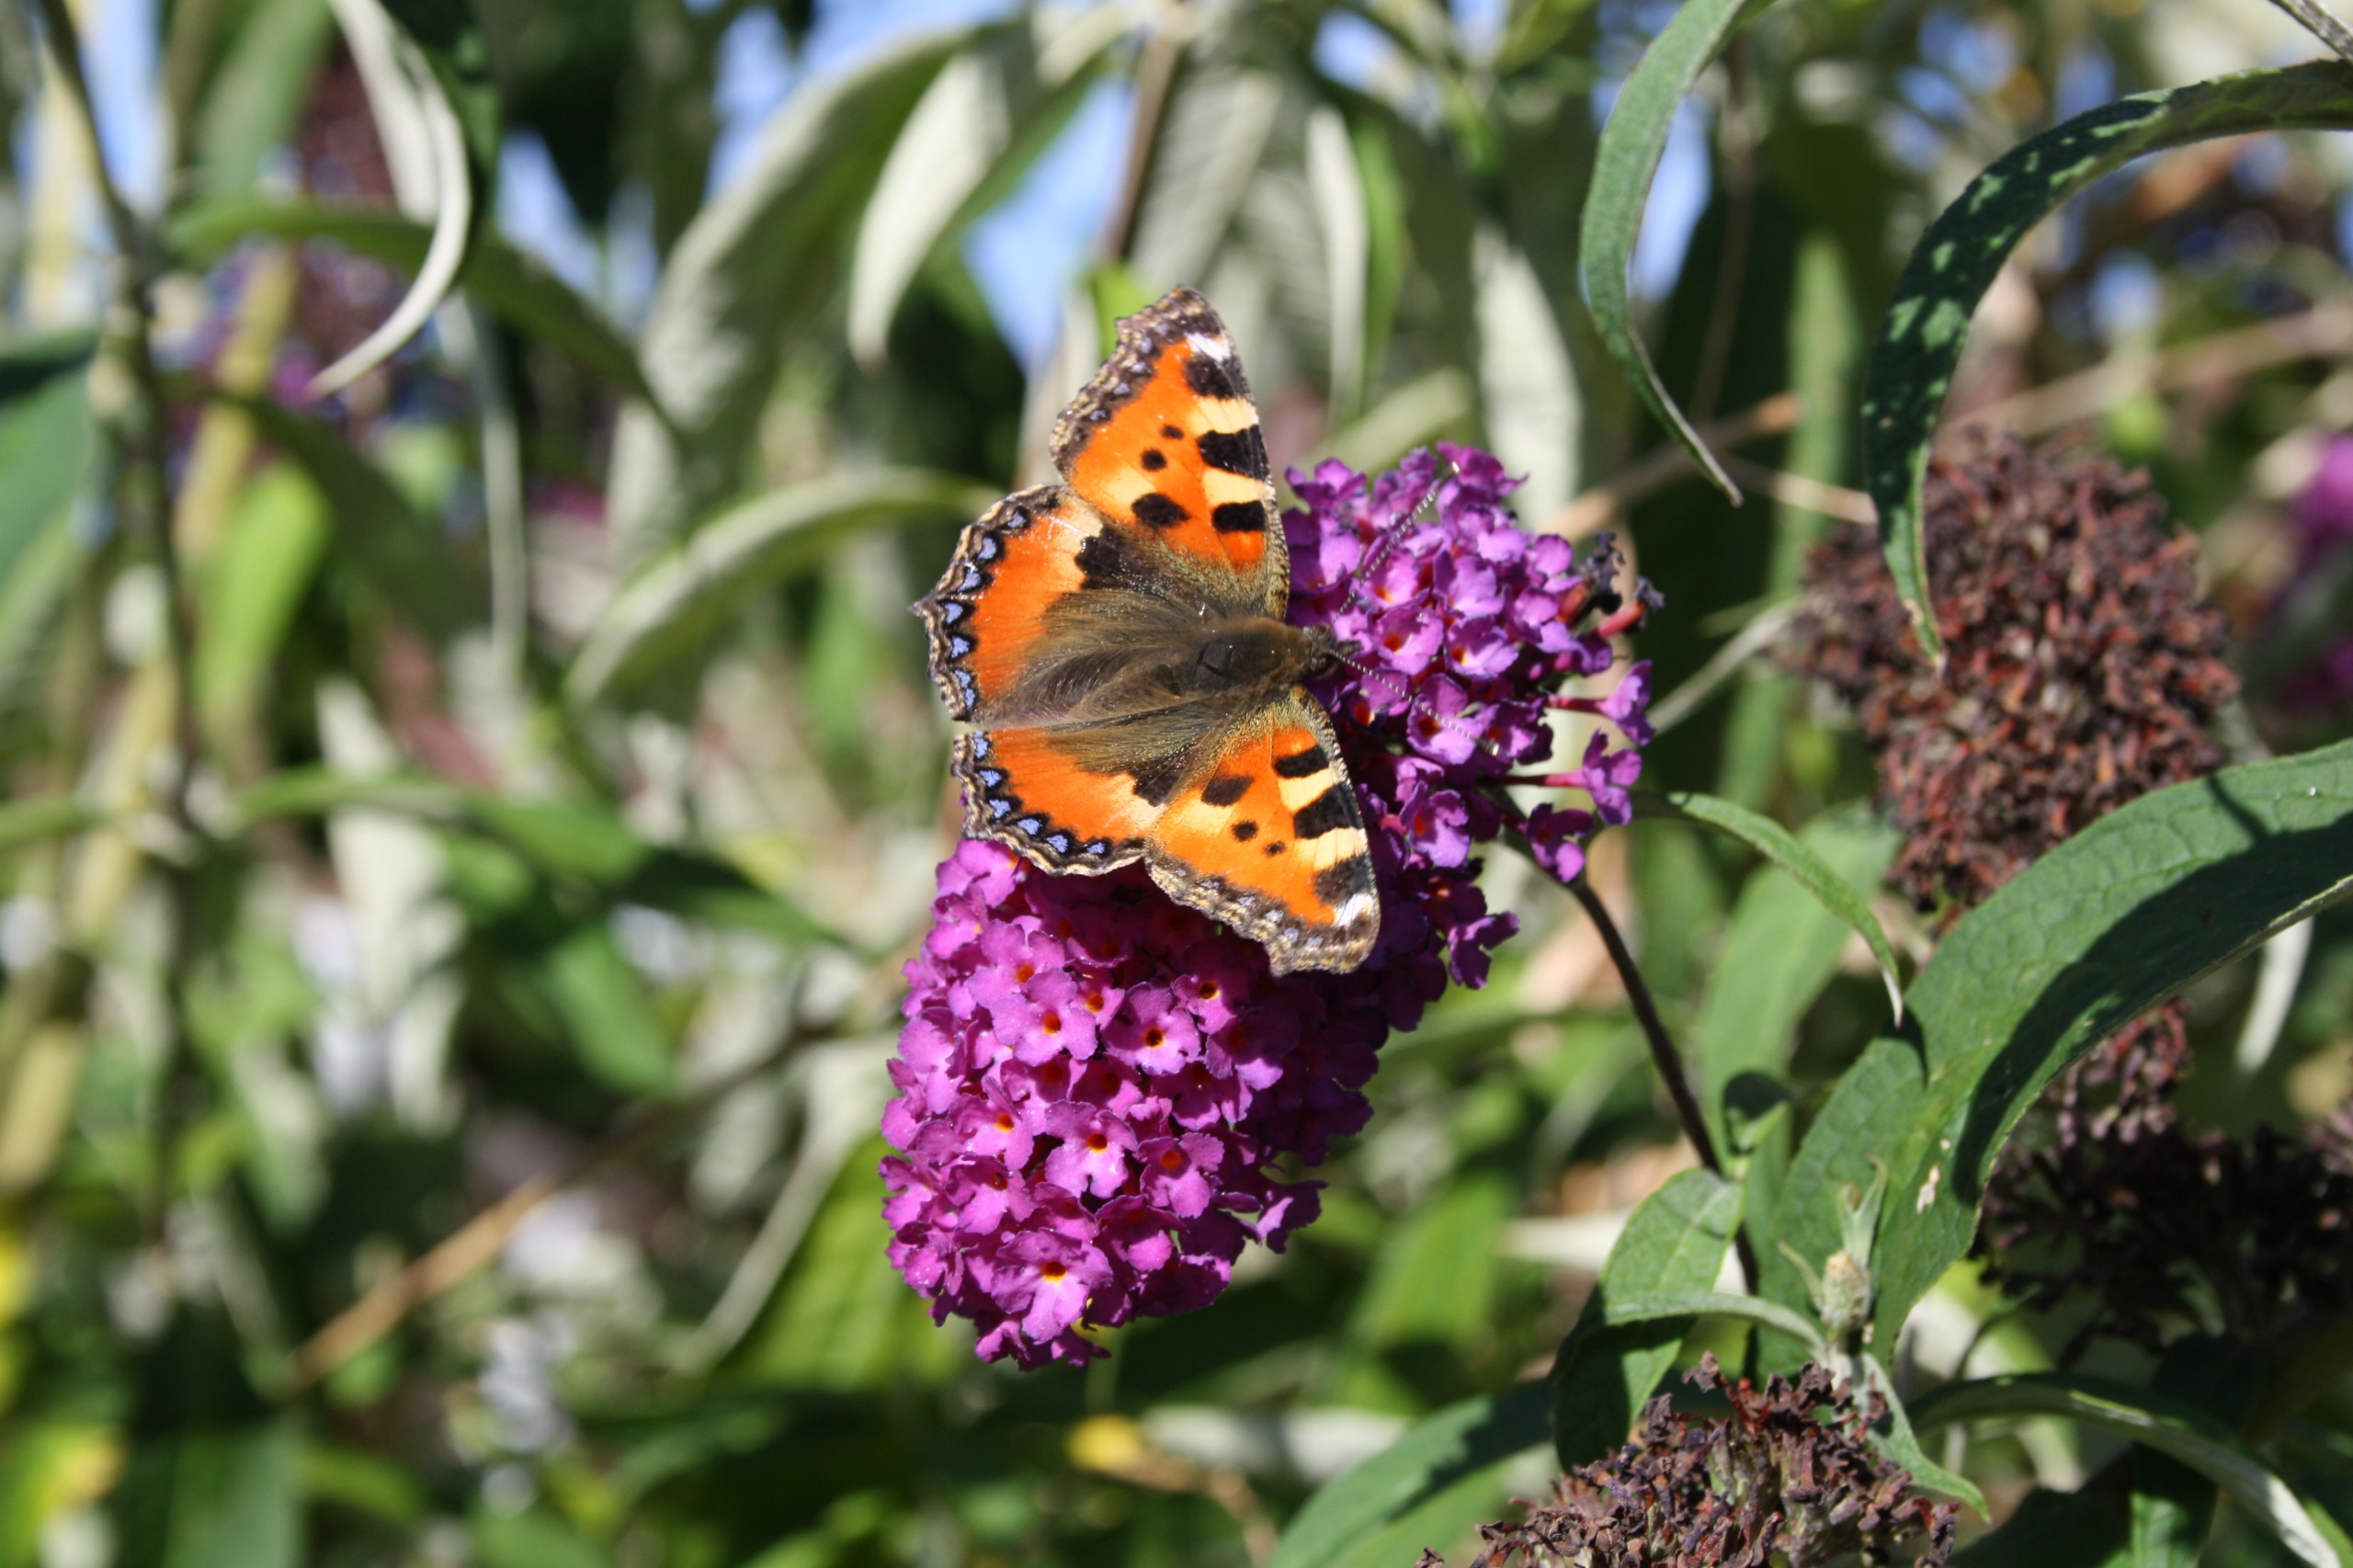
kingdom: Animalia
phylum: Arthropoda
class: Insecta
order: Lepidoptera
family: Nymphalidae
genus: Aglais
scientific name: Aglais urticae
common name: Nældens takvinge
